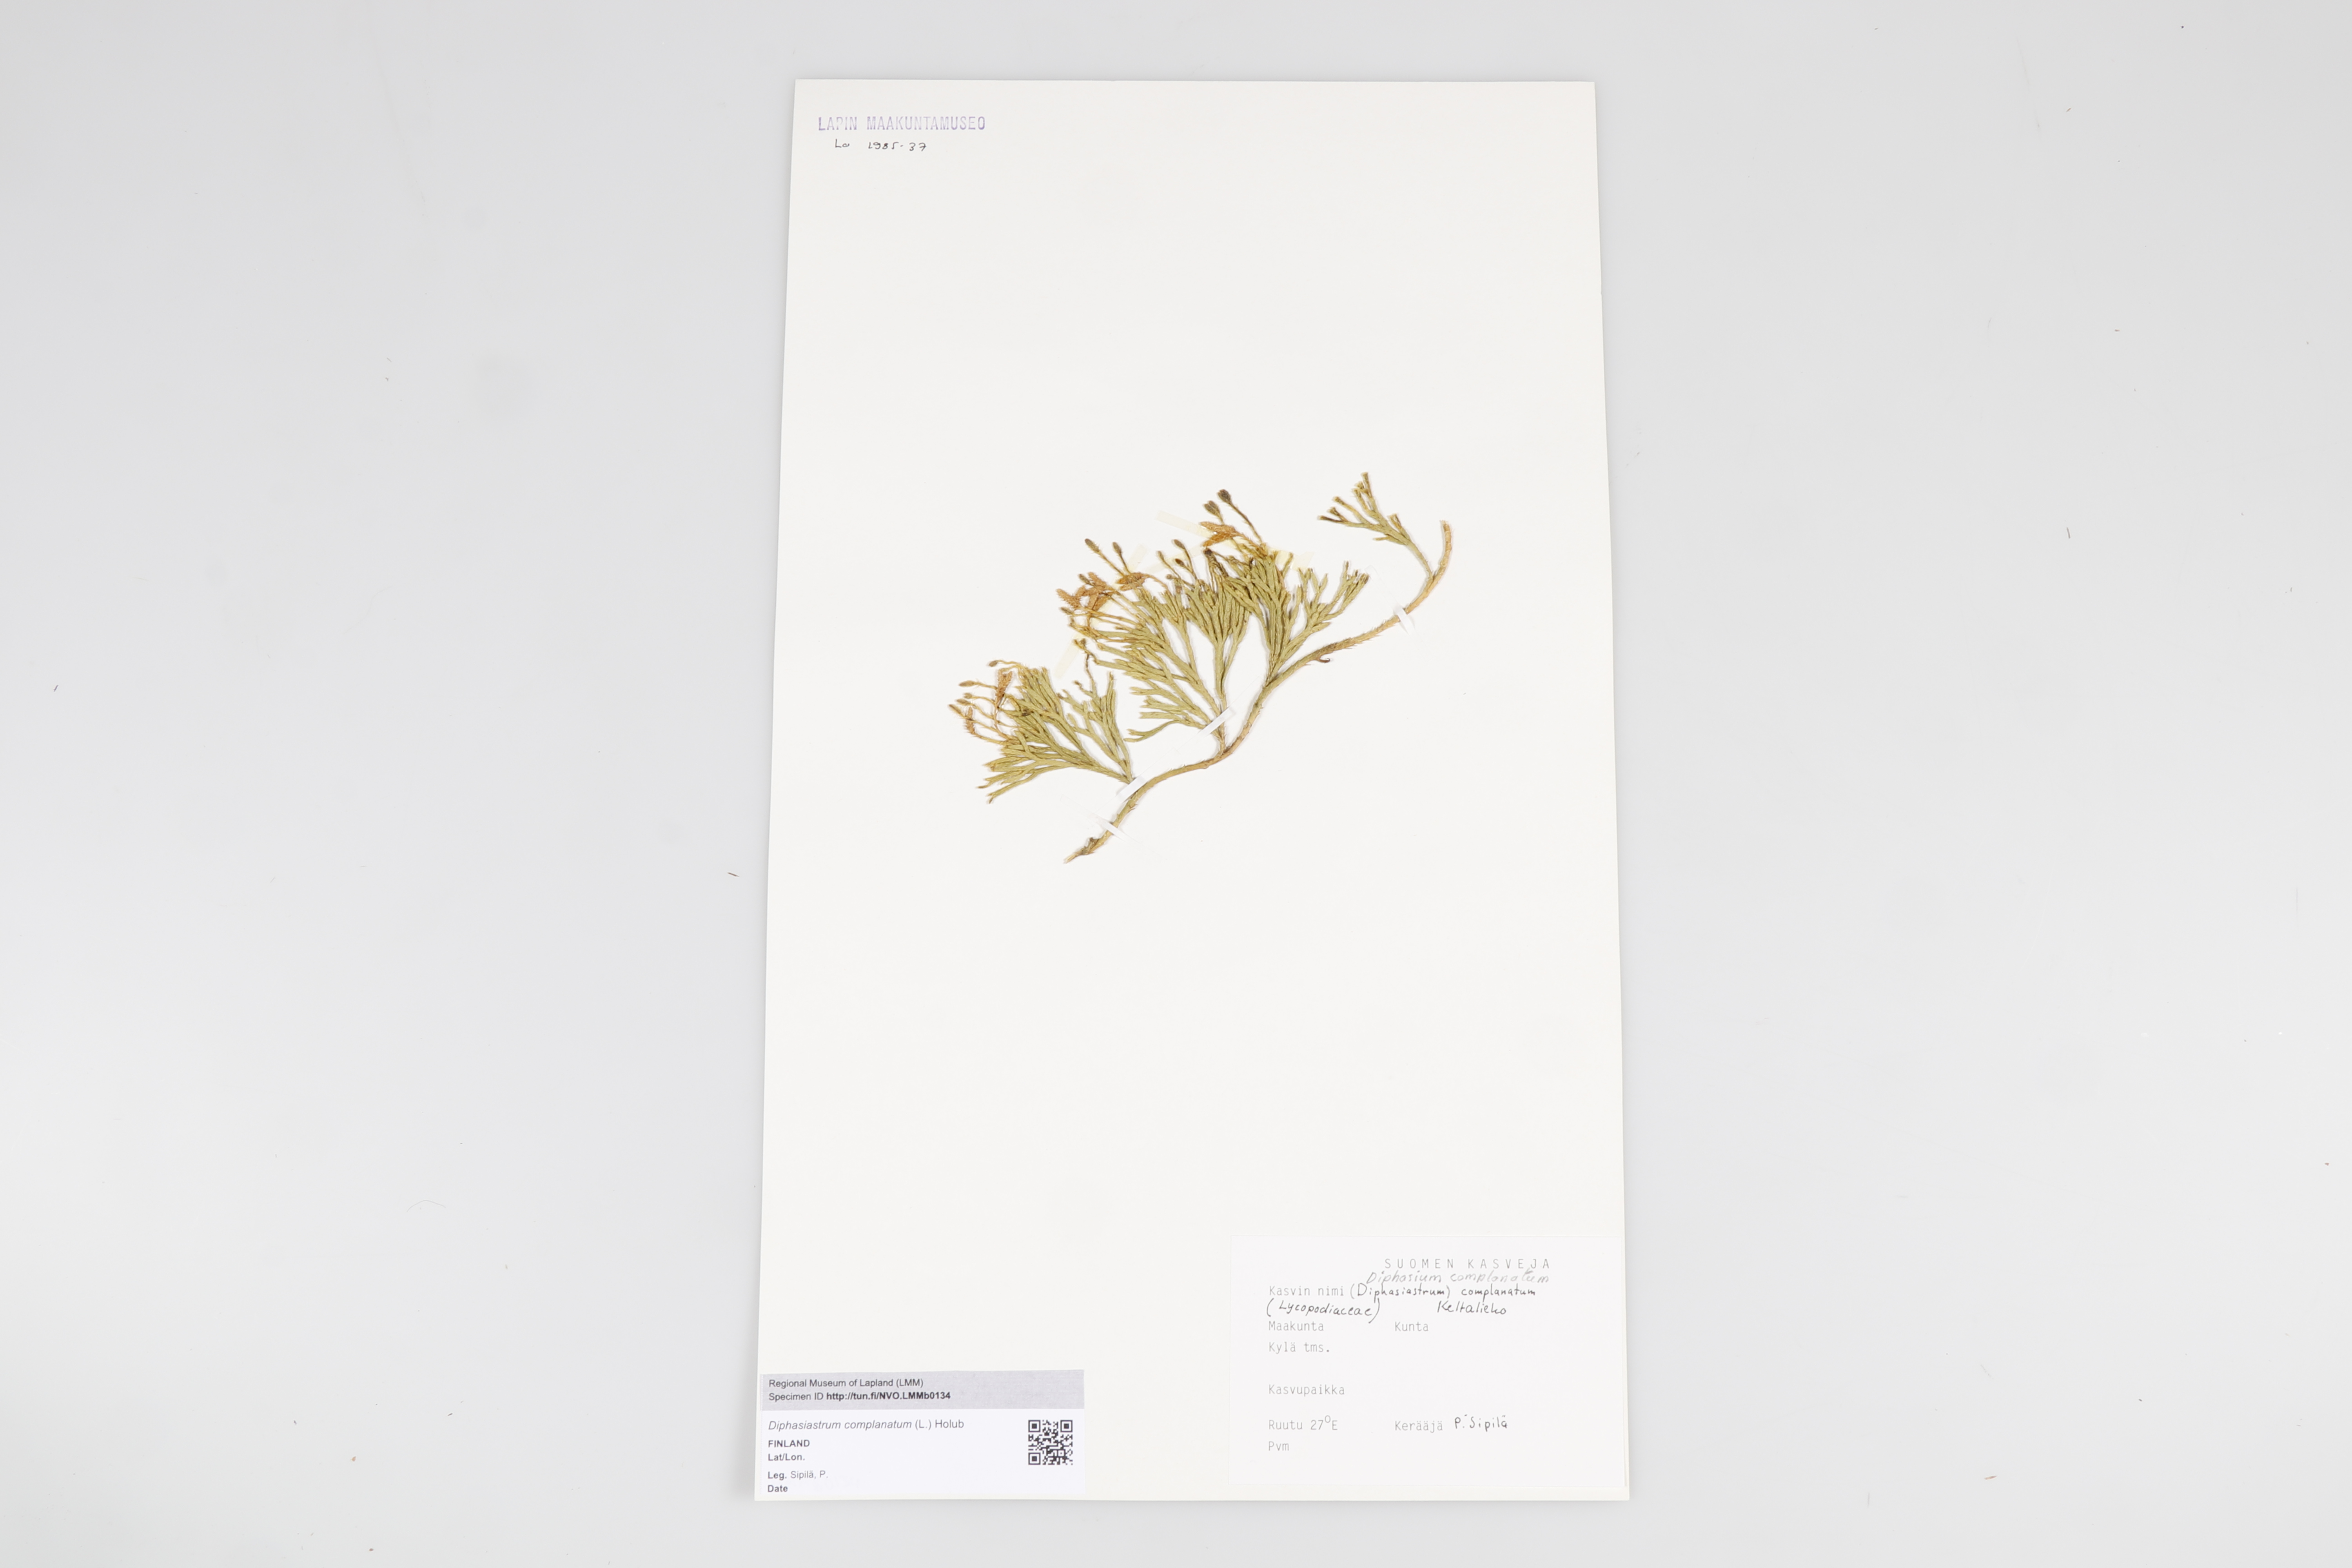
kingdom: Plantae
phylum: Tracheophyta
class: Lycopodiopsida
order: Lycopodiales
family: Lycopodiaceae
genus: Diphasiastrum
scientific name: Diphasiastrum
